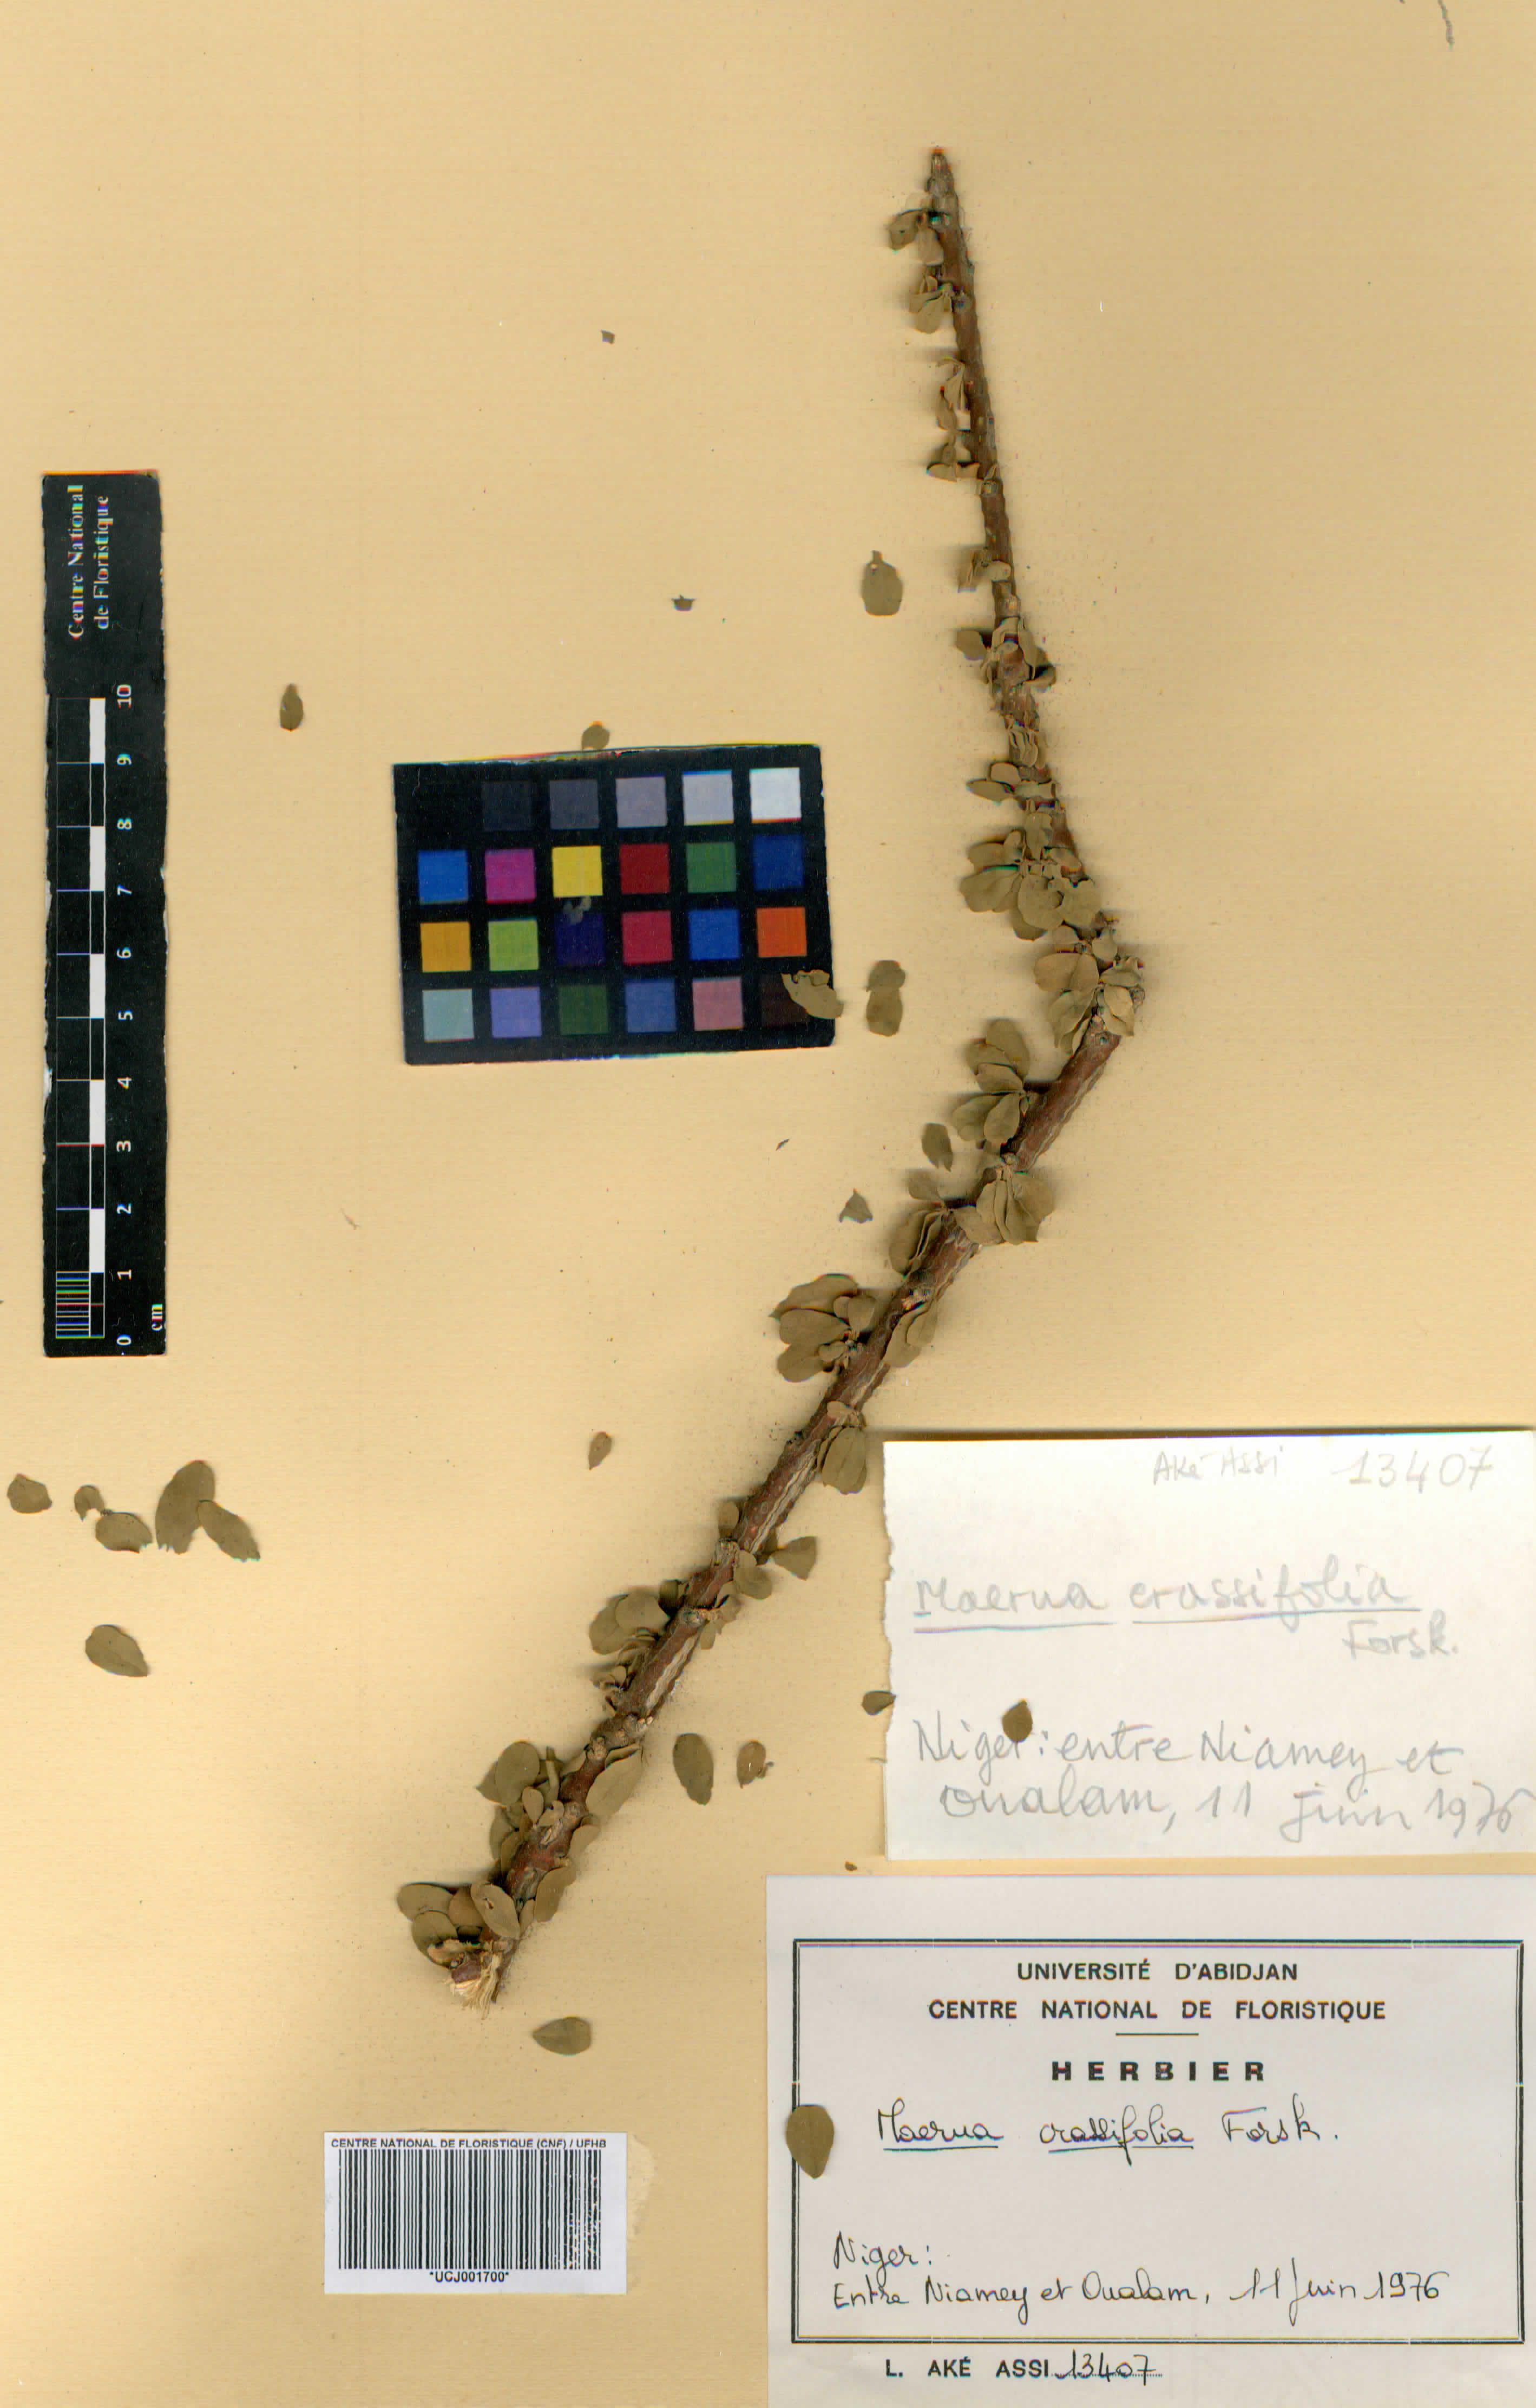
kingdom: Plantae
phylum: Tracheophyta
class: Magnoliopsida
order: Brassicales
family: Capparaceae
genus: Maerua
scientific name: Maerua crassifolia
